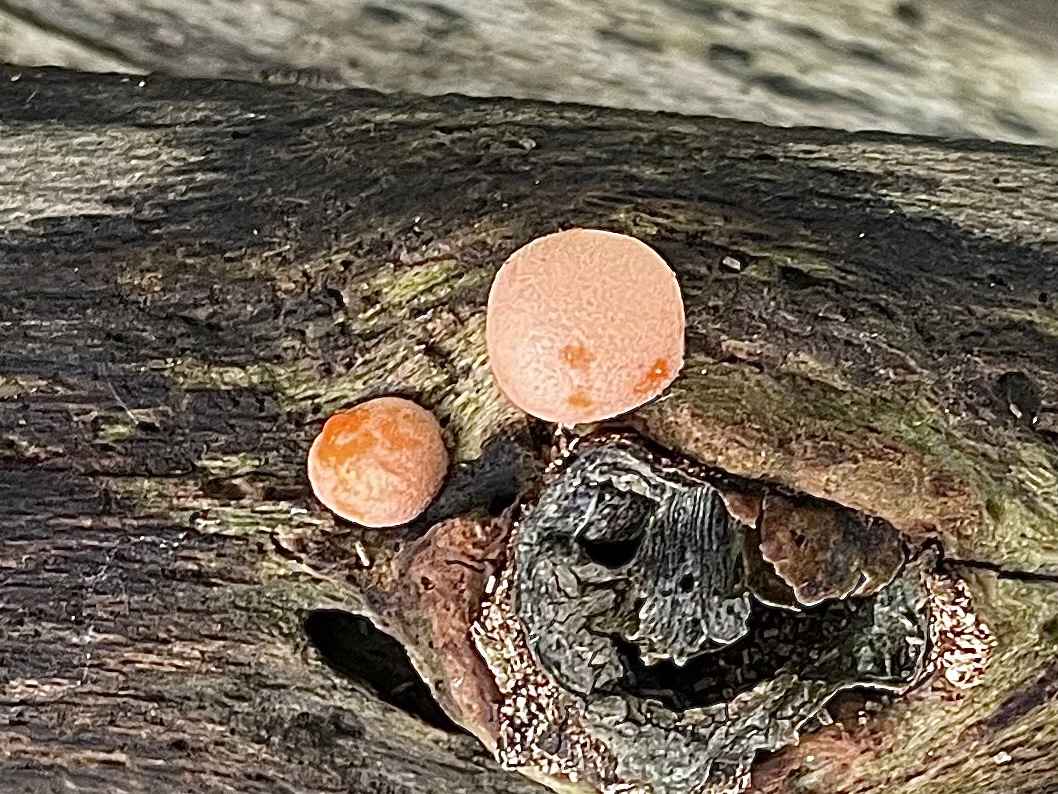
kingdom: Protozoa
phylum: Mycetozoa
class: Myxomycetes
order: Cribrariales
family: Tubiferaceae
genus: Lycogala
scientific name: Lycogala epidendrum
